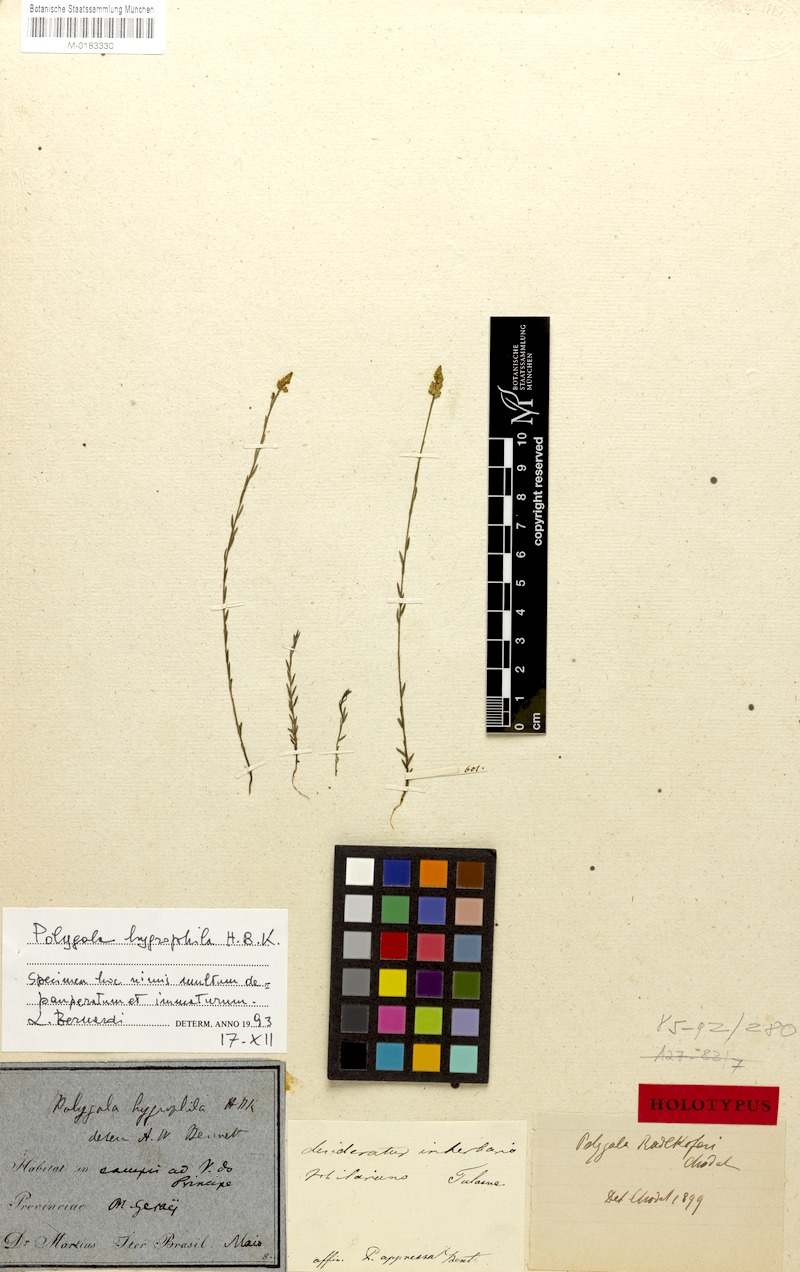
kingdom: Plantae
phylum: Tracheophyta
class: Magnoliopsida
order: Fabales
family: Polygalaceae
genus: Polygala
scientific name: Polygala carphoides
